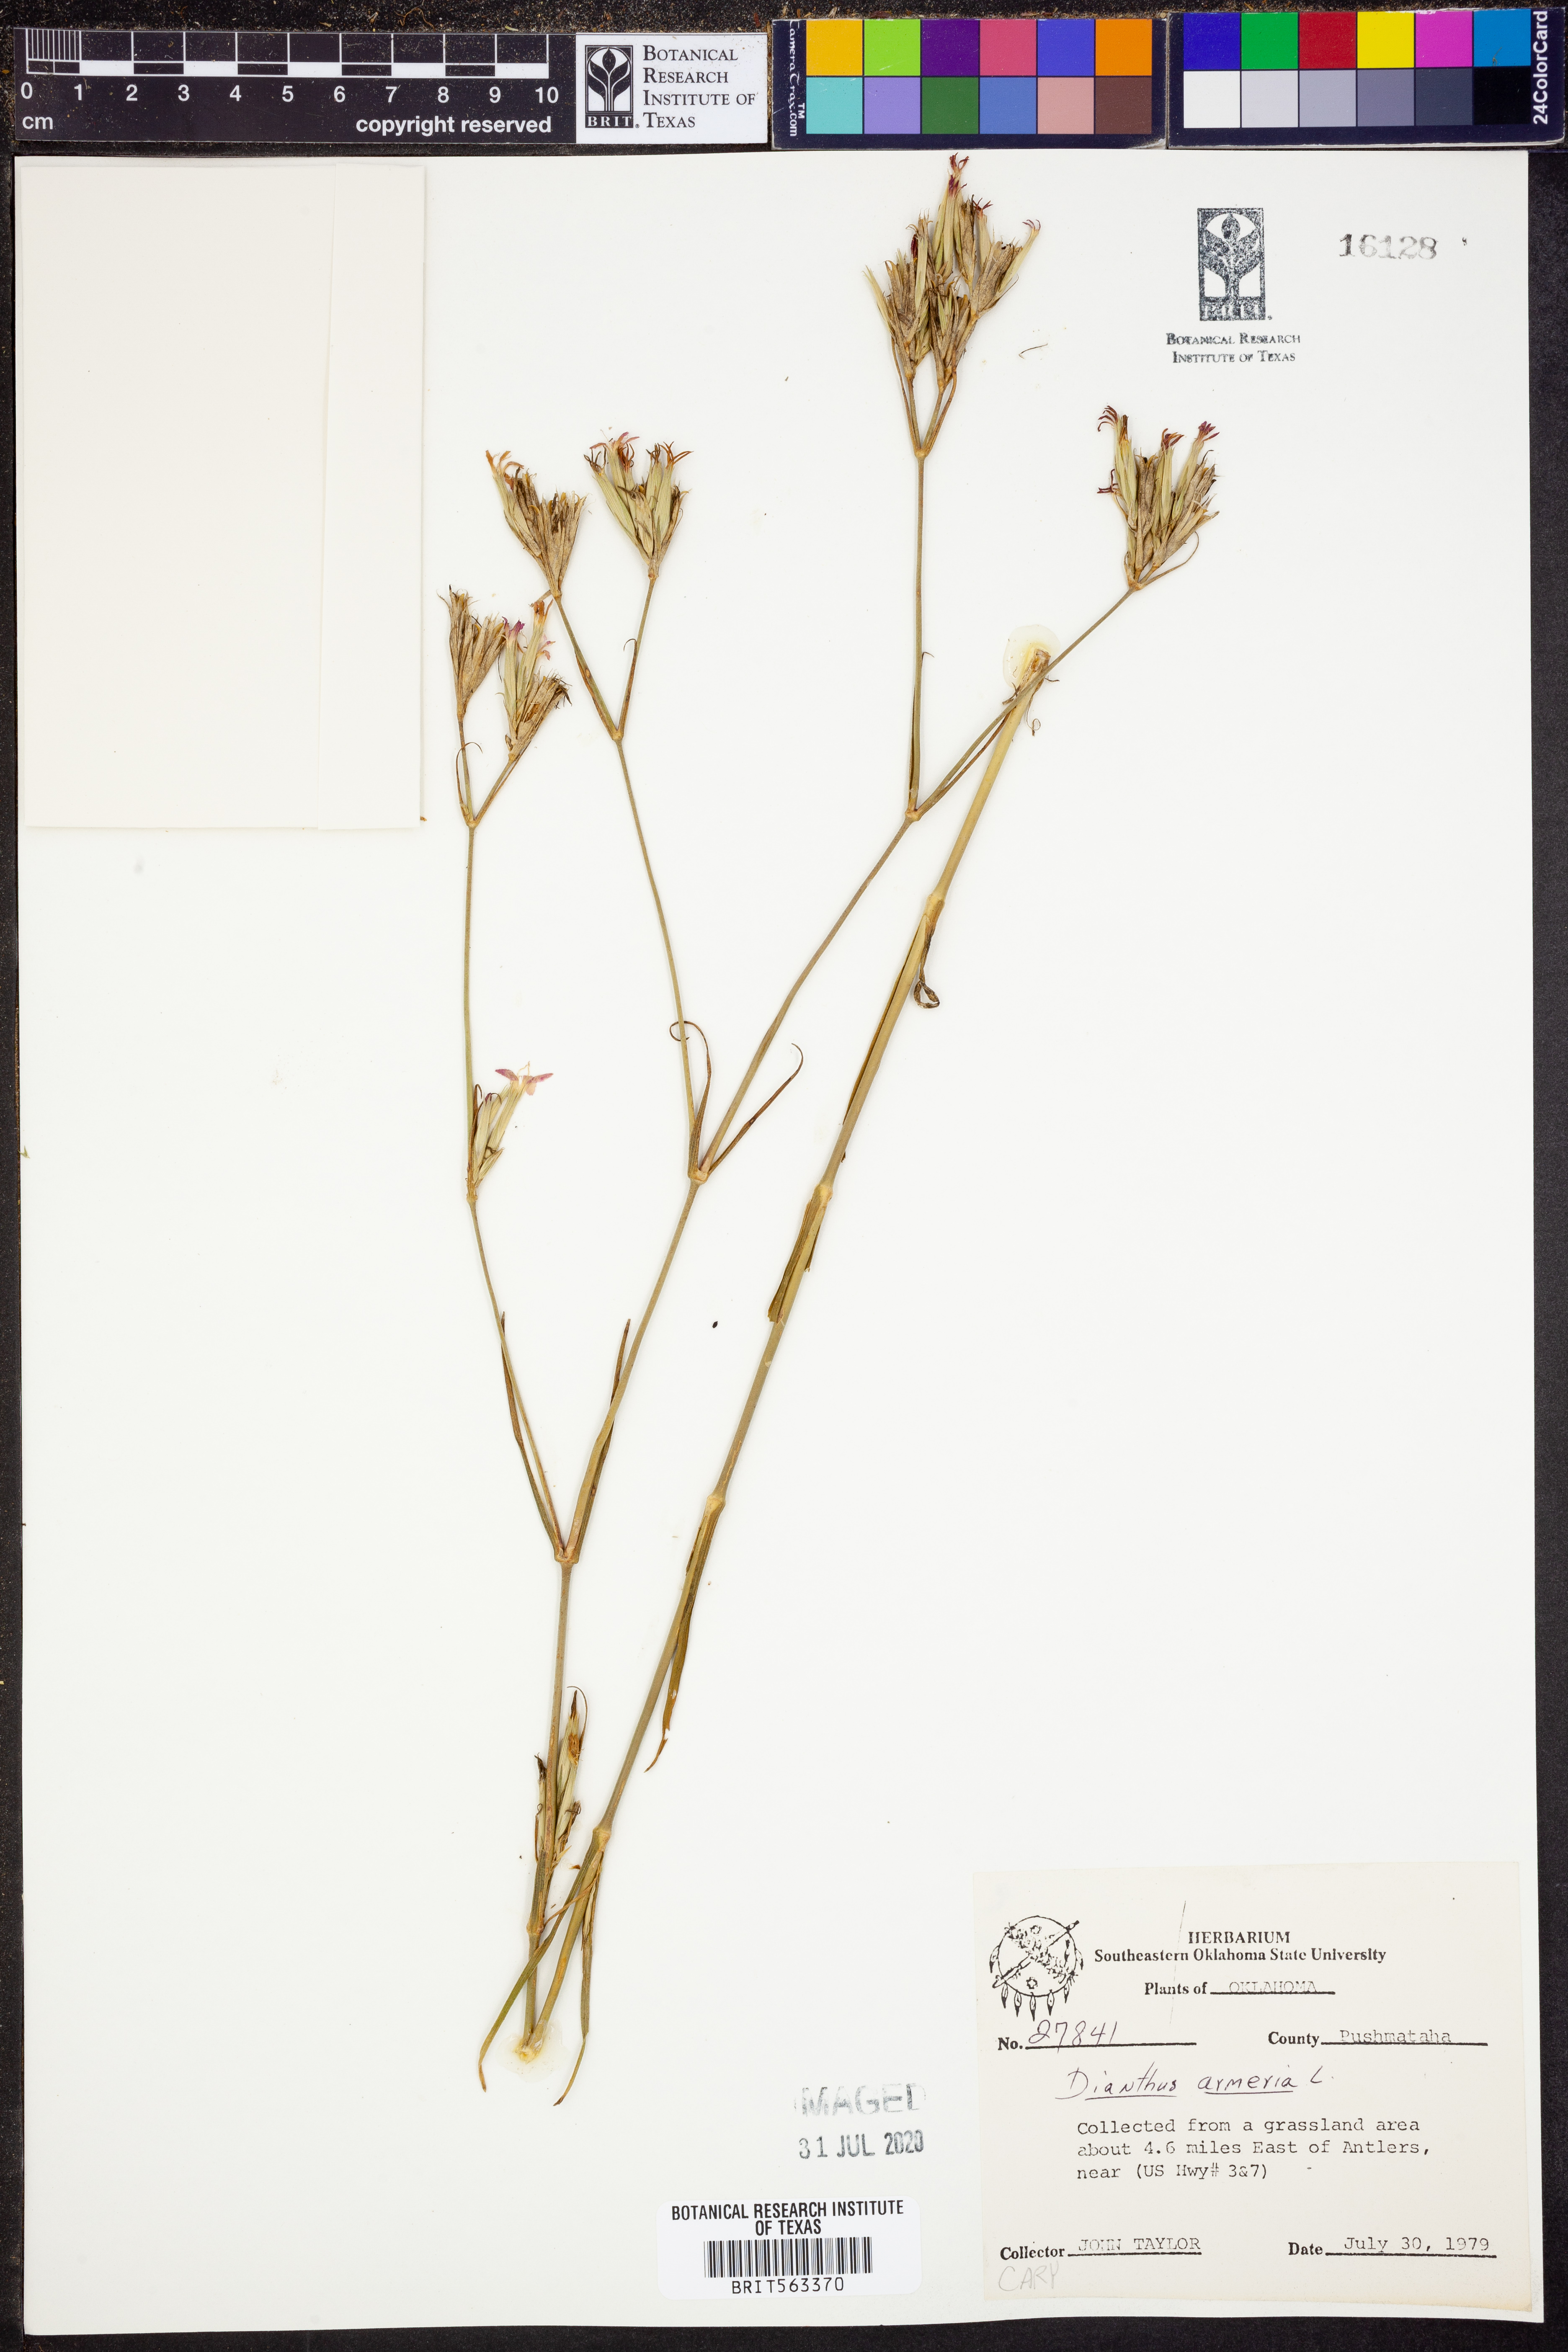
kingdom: Plantae
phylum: Tracheophyta
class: Magnoliopsida
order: Caryophyllales
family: Caryophyllaceae
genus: Dianthus
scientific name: Dianthus armeria
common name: Deptford pink
